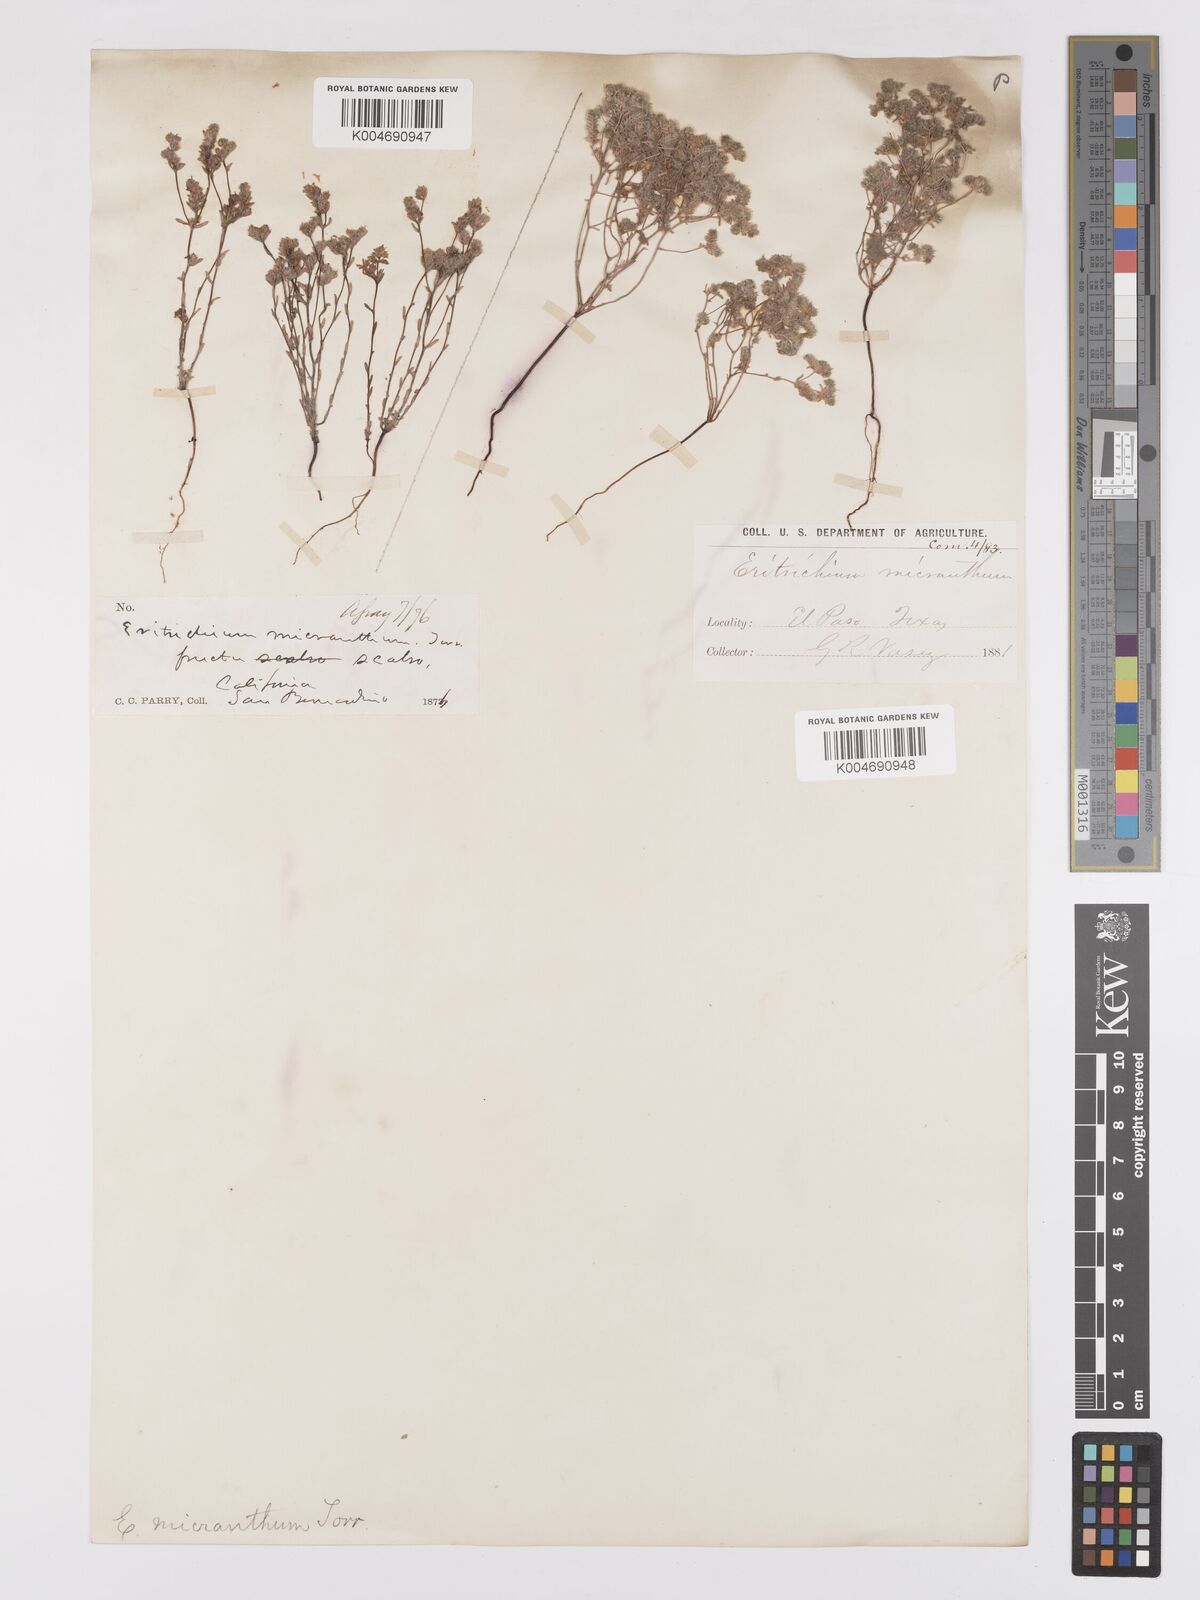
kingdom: Plantae
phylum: Tracheophyta
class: Magnoliopsida
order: Boraginales
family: Boraginaceae
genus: Eremocarya
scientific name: Eremocarya micrantha
